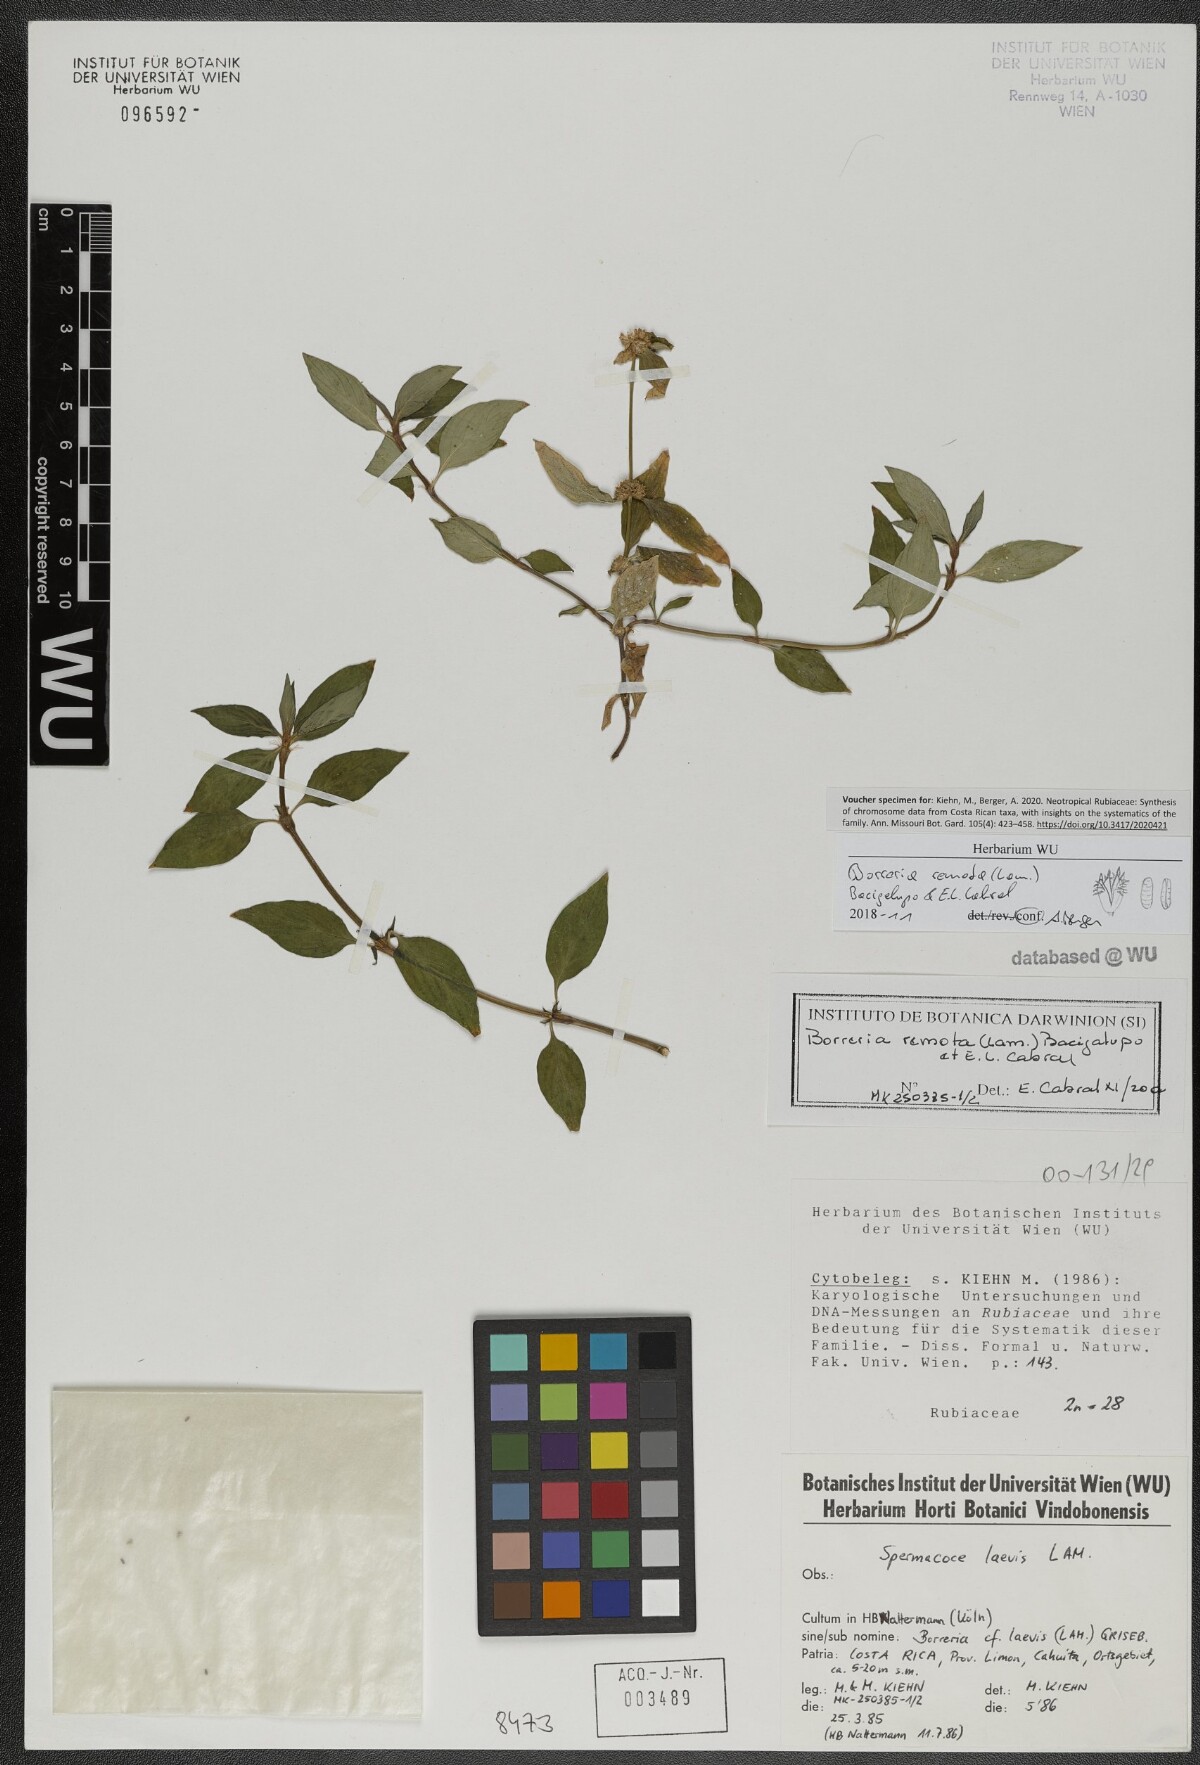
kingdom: Plantae
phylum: Tracheophyta
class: Magnoliopsida
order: Gentianales
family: Rubiaceae
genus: Spermacoce
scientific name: Spermacoce remota
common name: Woodland false buttonweed
